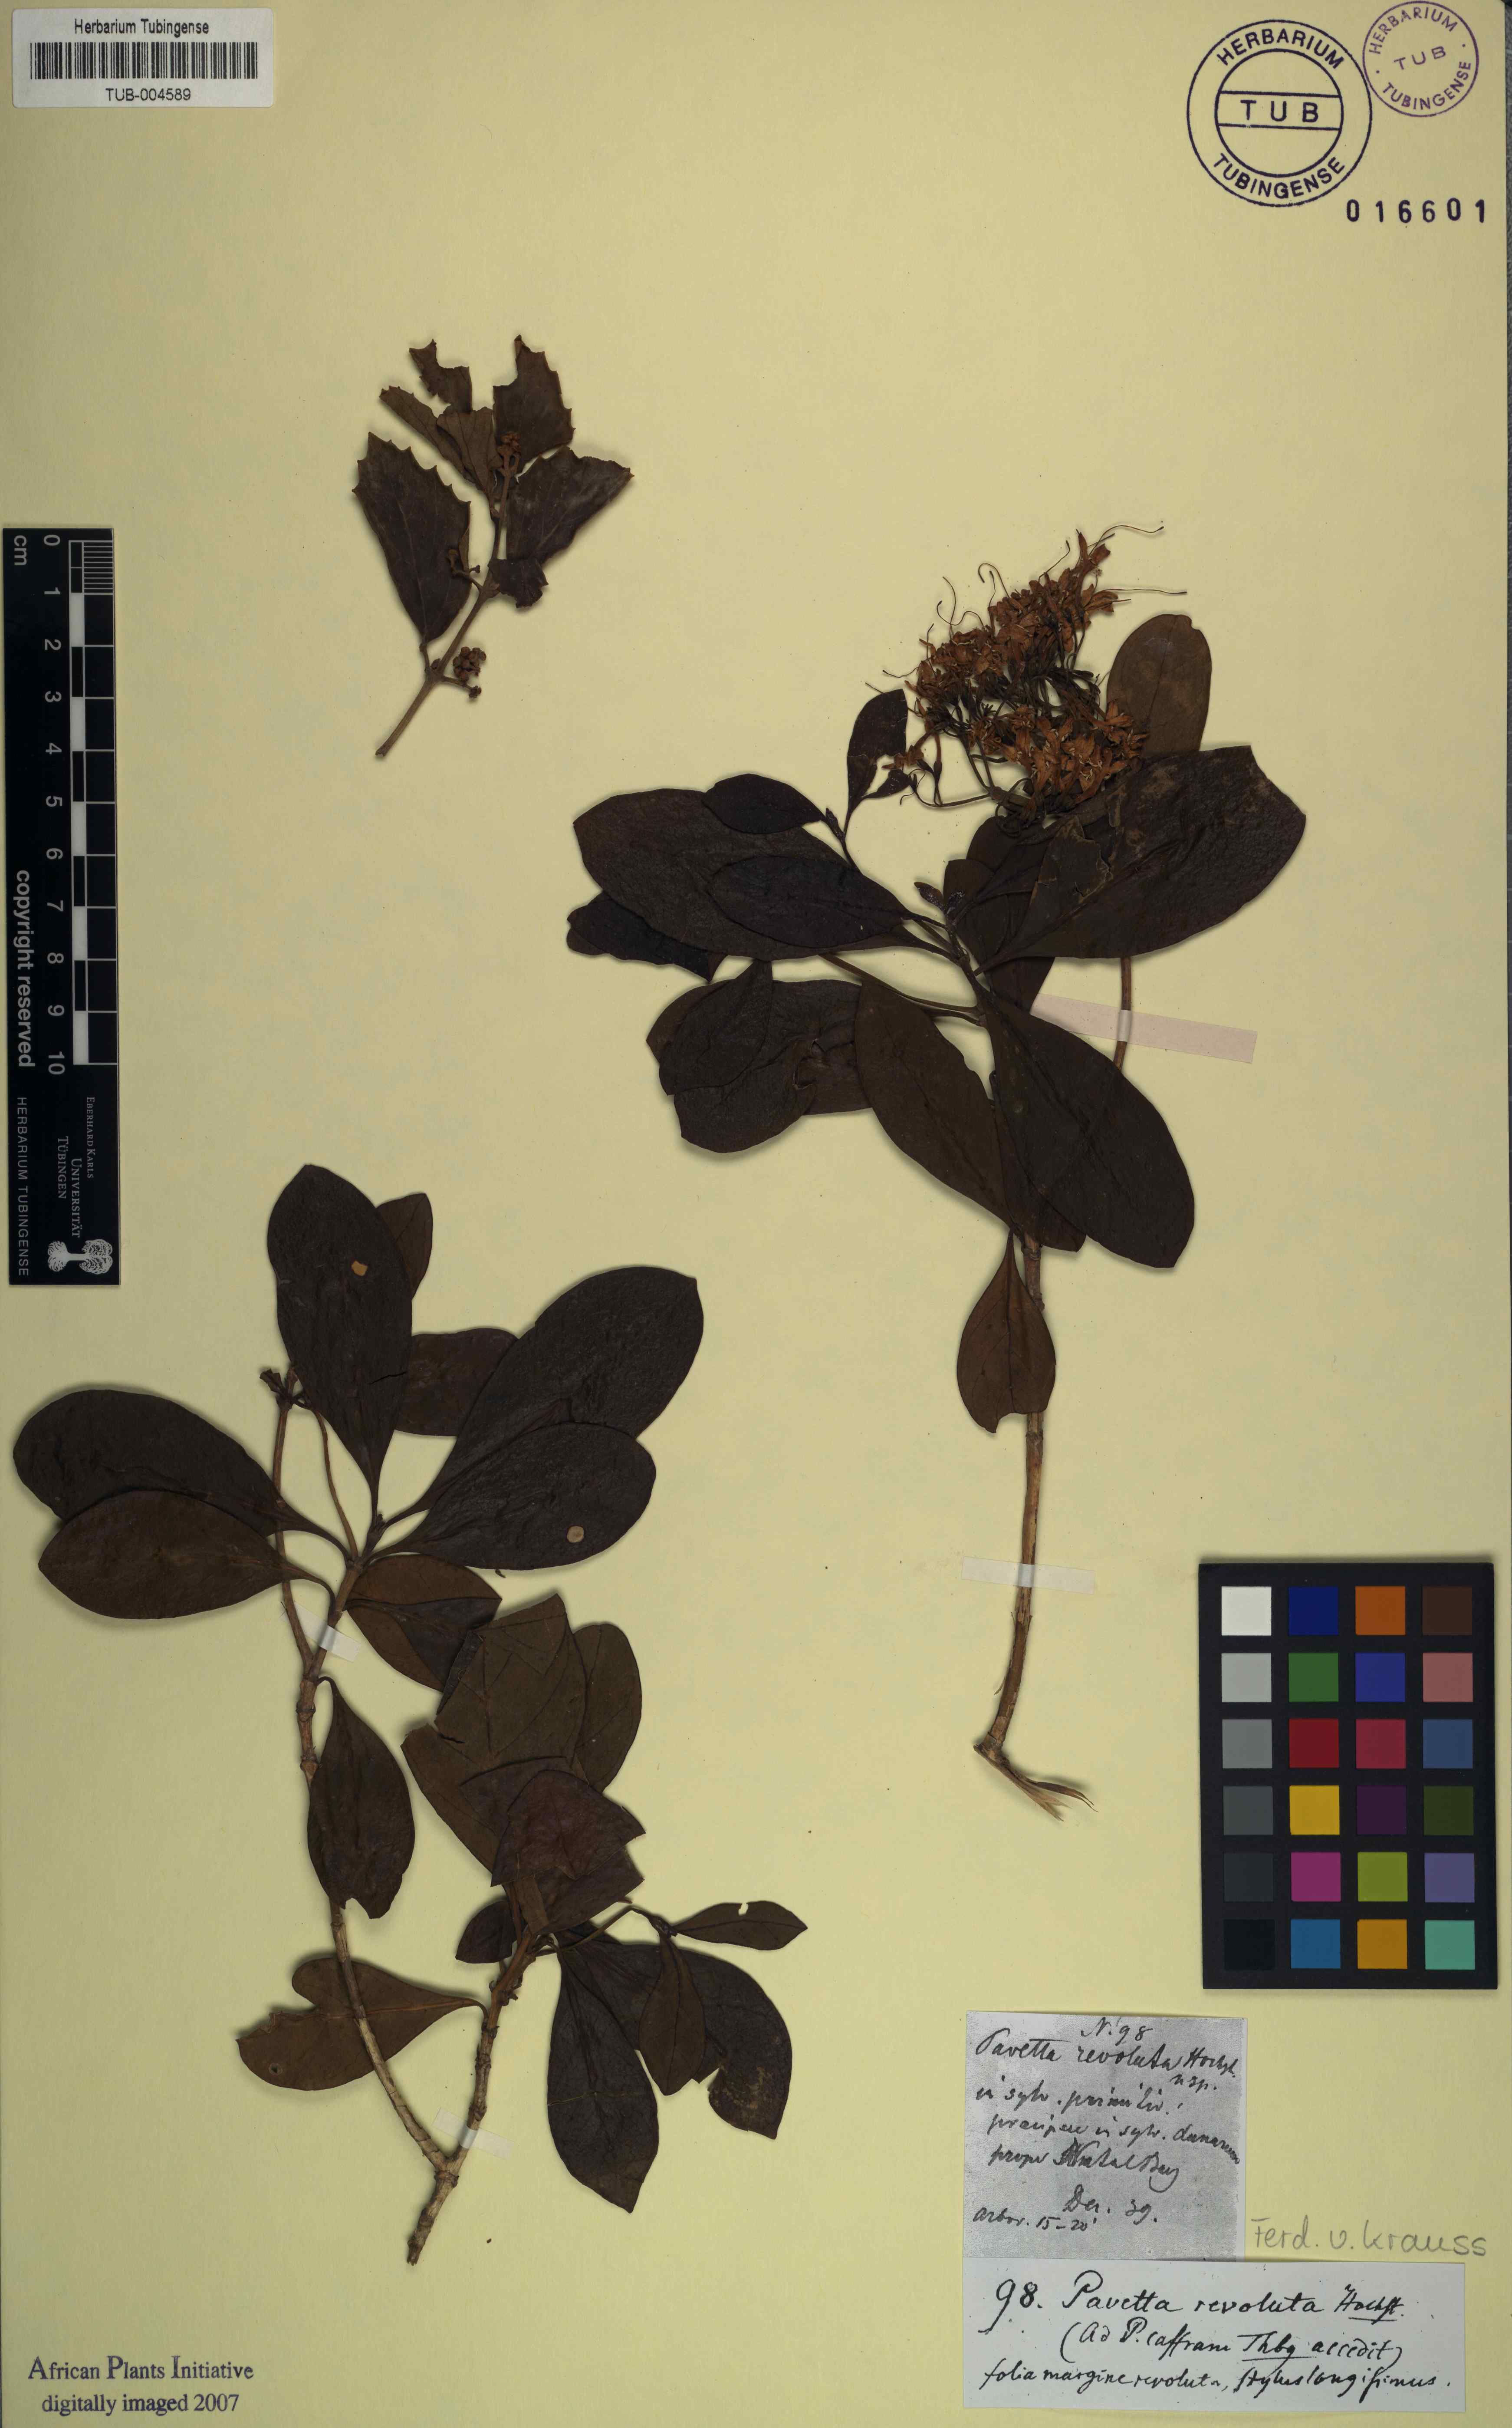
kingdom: Plantae
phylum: Tracheophyta
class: Magnoliopsida
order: Gentianales
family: Rubiaceae
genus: Pavetta
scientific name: Pavetta revoluta
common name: Dune brides-bush
